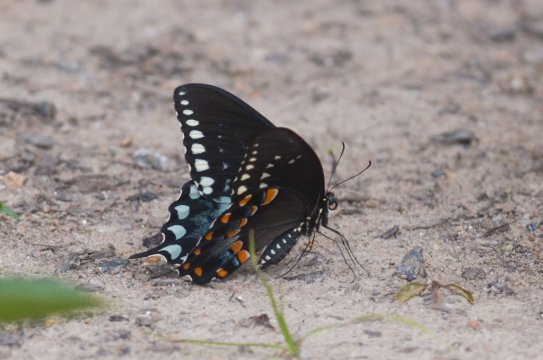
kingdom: Animalia
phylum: Arthropoda
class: Insecta
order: Lepidoptera
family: Papilionidae
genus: Pterourus
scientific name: Pterourus troilus
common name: Spicebush Swallowtail
